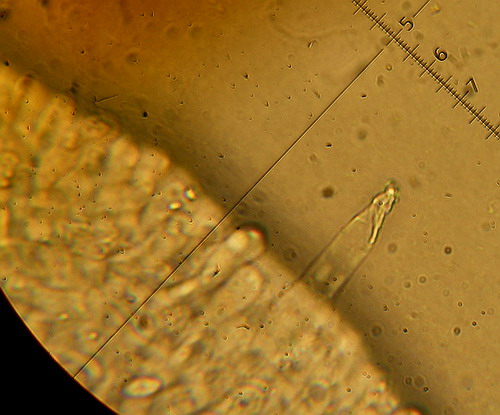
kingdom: Fungi
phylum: Basidiomycota
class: Agaricomycetes
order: Agaricales
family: Tricholomataceae
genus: Melanoleuca
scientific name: Melanoleuca polioleuca
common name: almindelig munkehat
